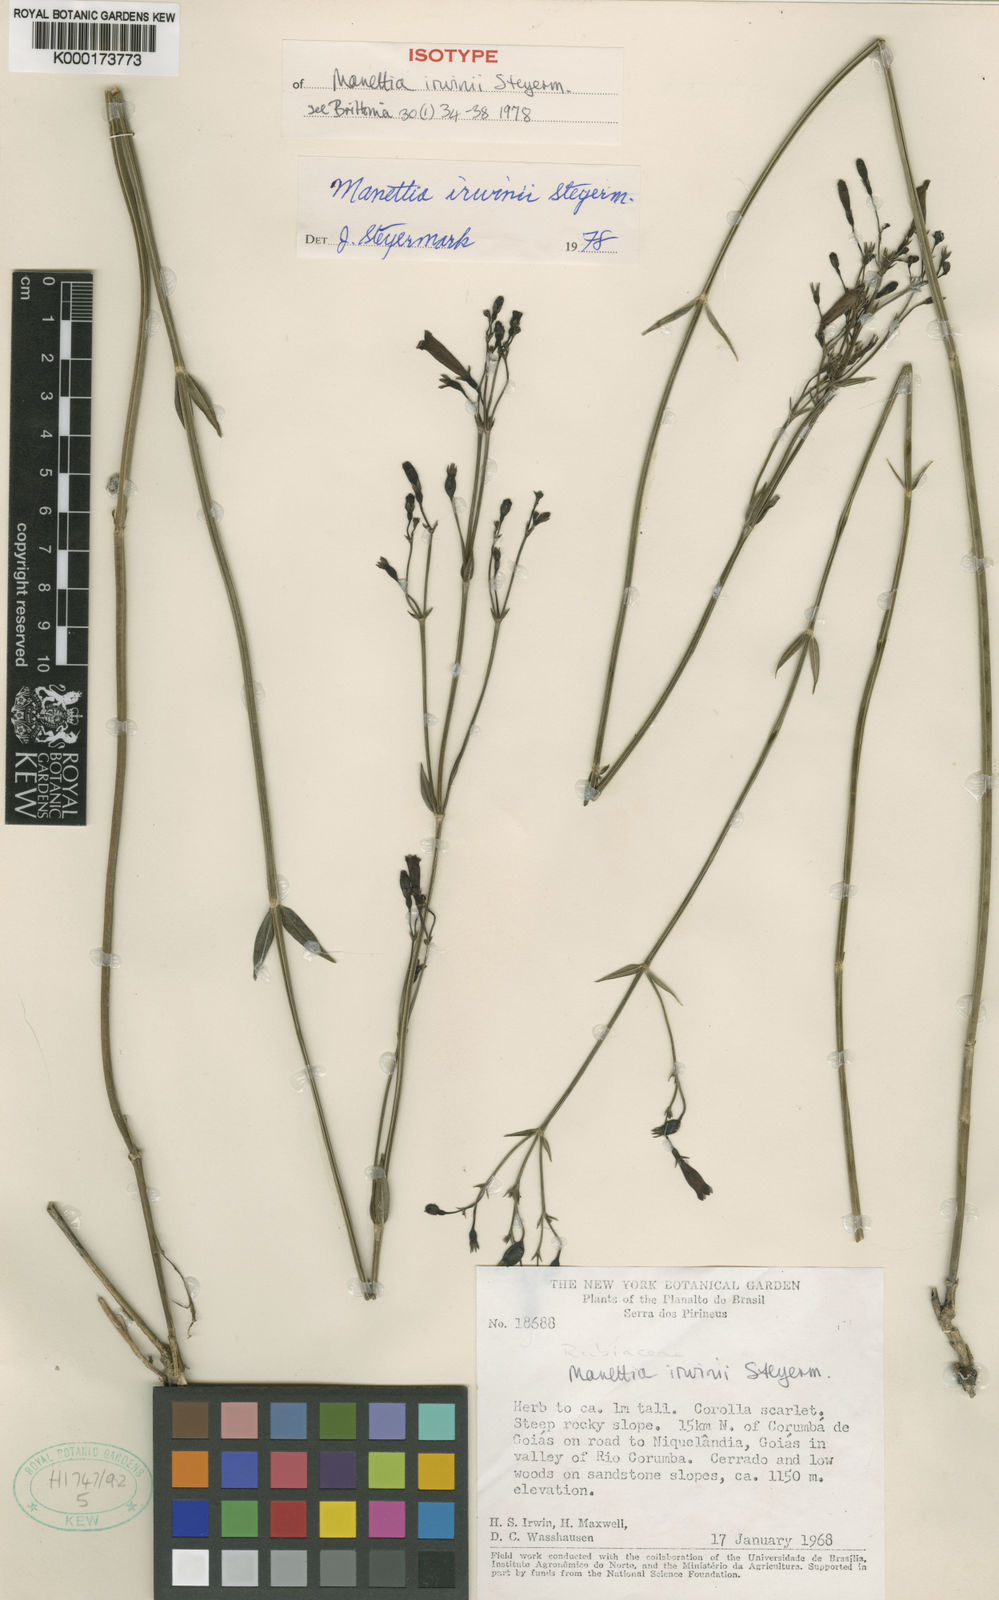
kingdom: Plantae
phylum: Tracheophyta
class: Magnoliopsida
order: Gentianales
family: Rubiaceae
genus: Manettia
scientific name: Manettia irwinii
